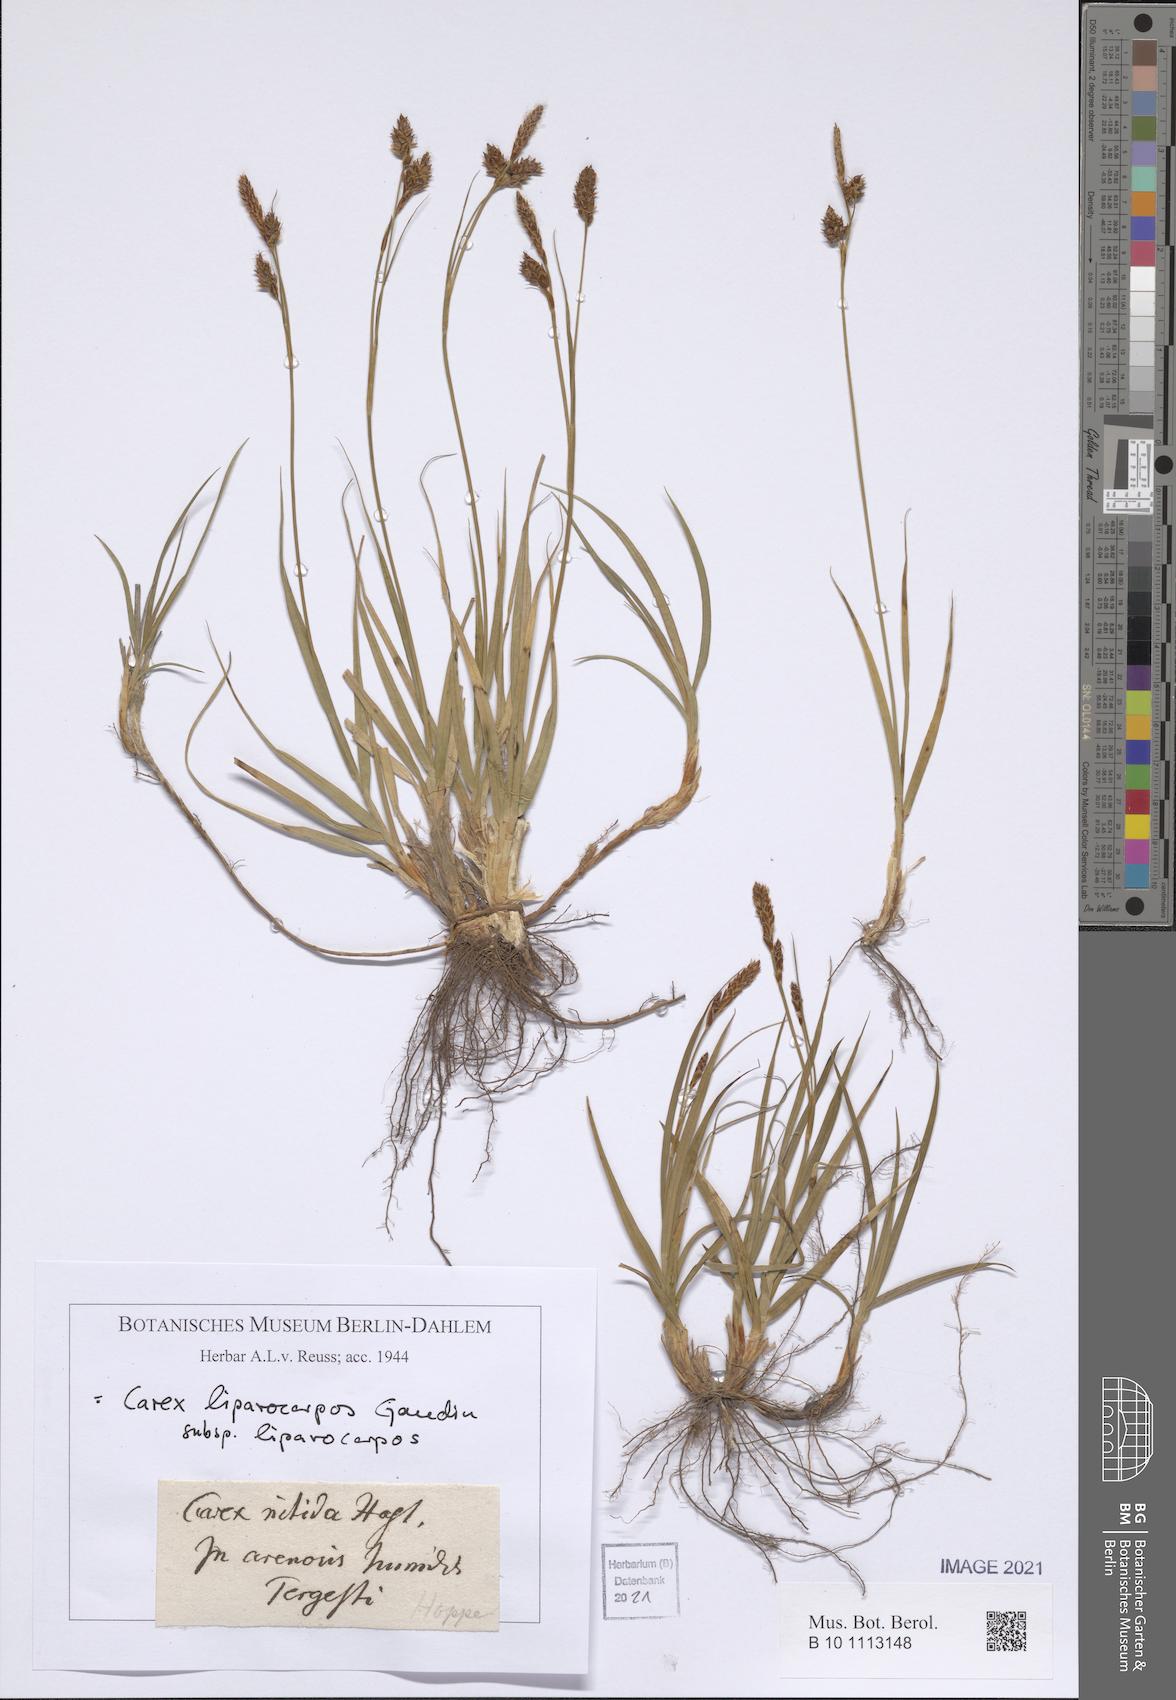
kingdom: Plantae
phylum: Tracheophyta
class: Liliopsida
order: Poales
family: Cyperaceae
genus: Carex
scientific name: Carex liparocarpos
